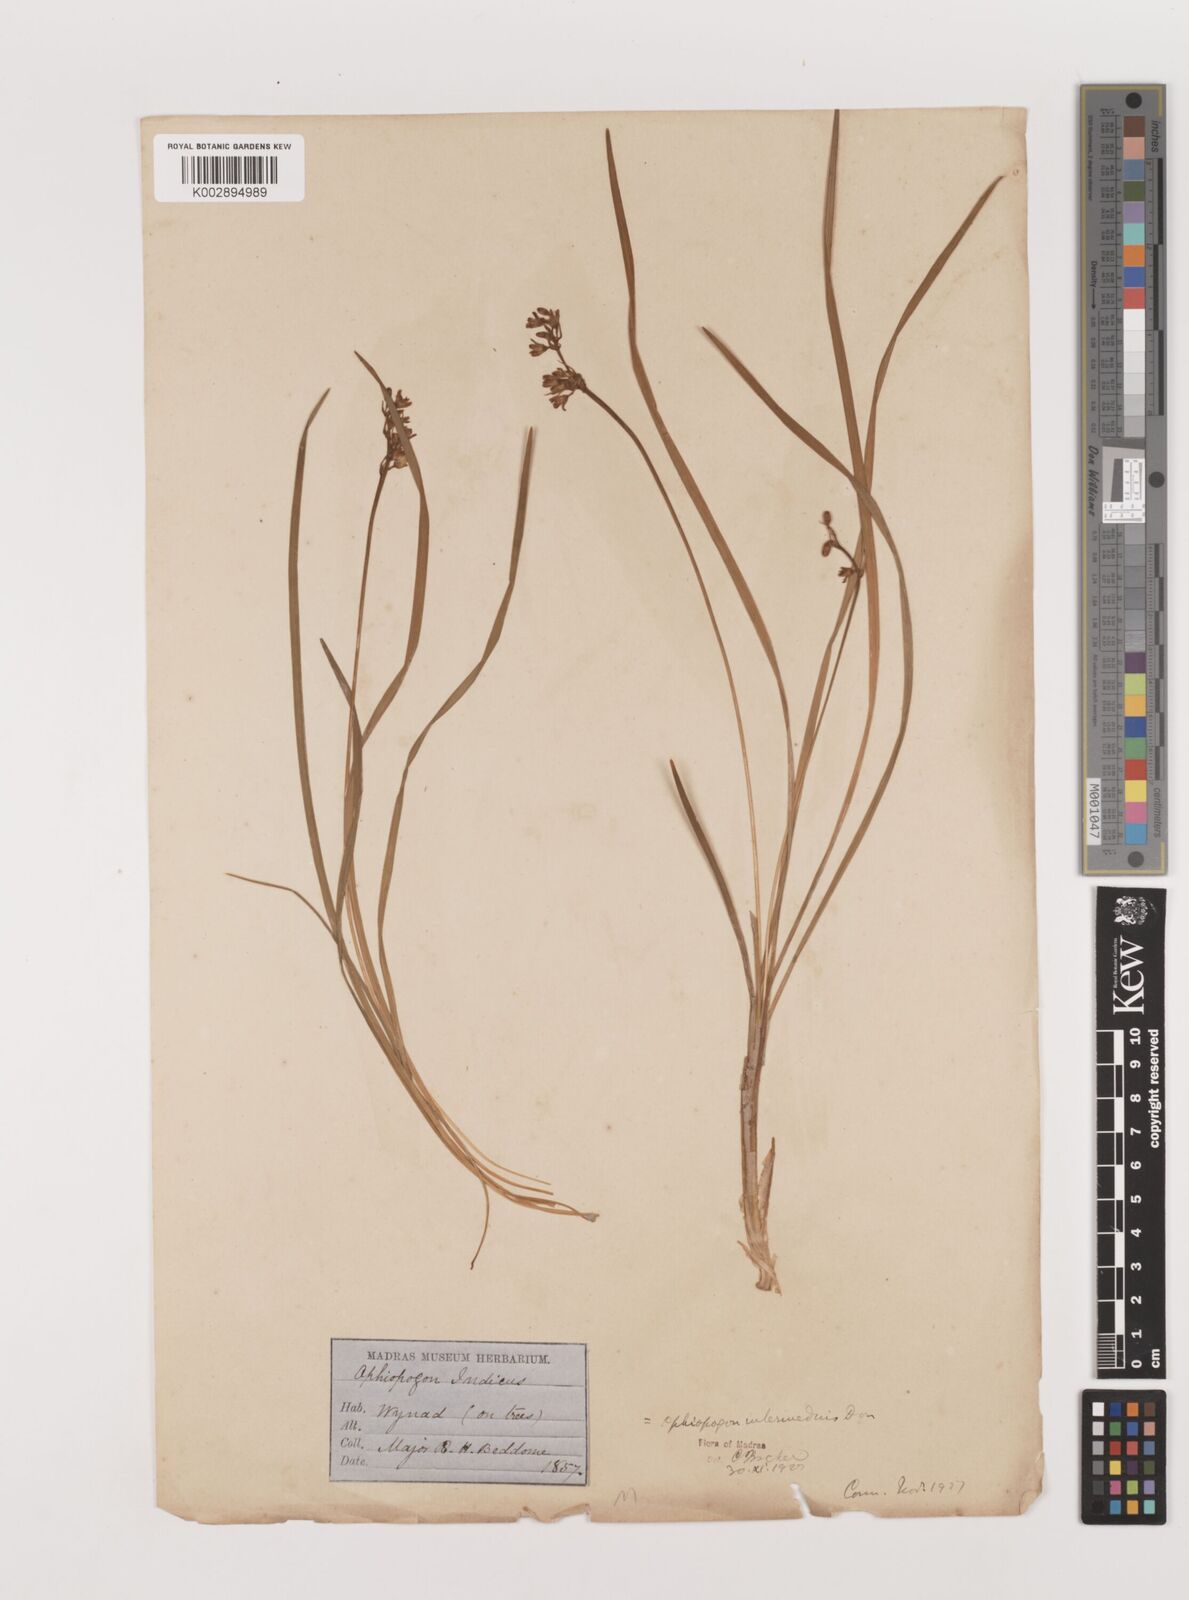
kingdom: Plantae
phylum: Tracheophyta
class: Liliopsida
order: Asparagales
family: Asparagaceae
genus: Ophiopogon
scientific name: Ophiopogon intermedius
